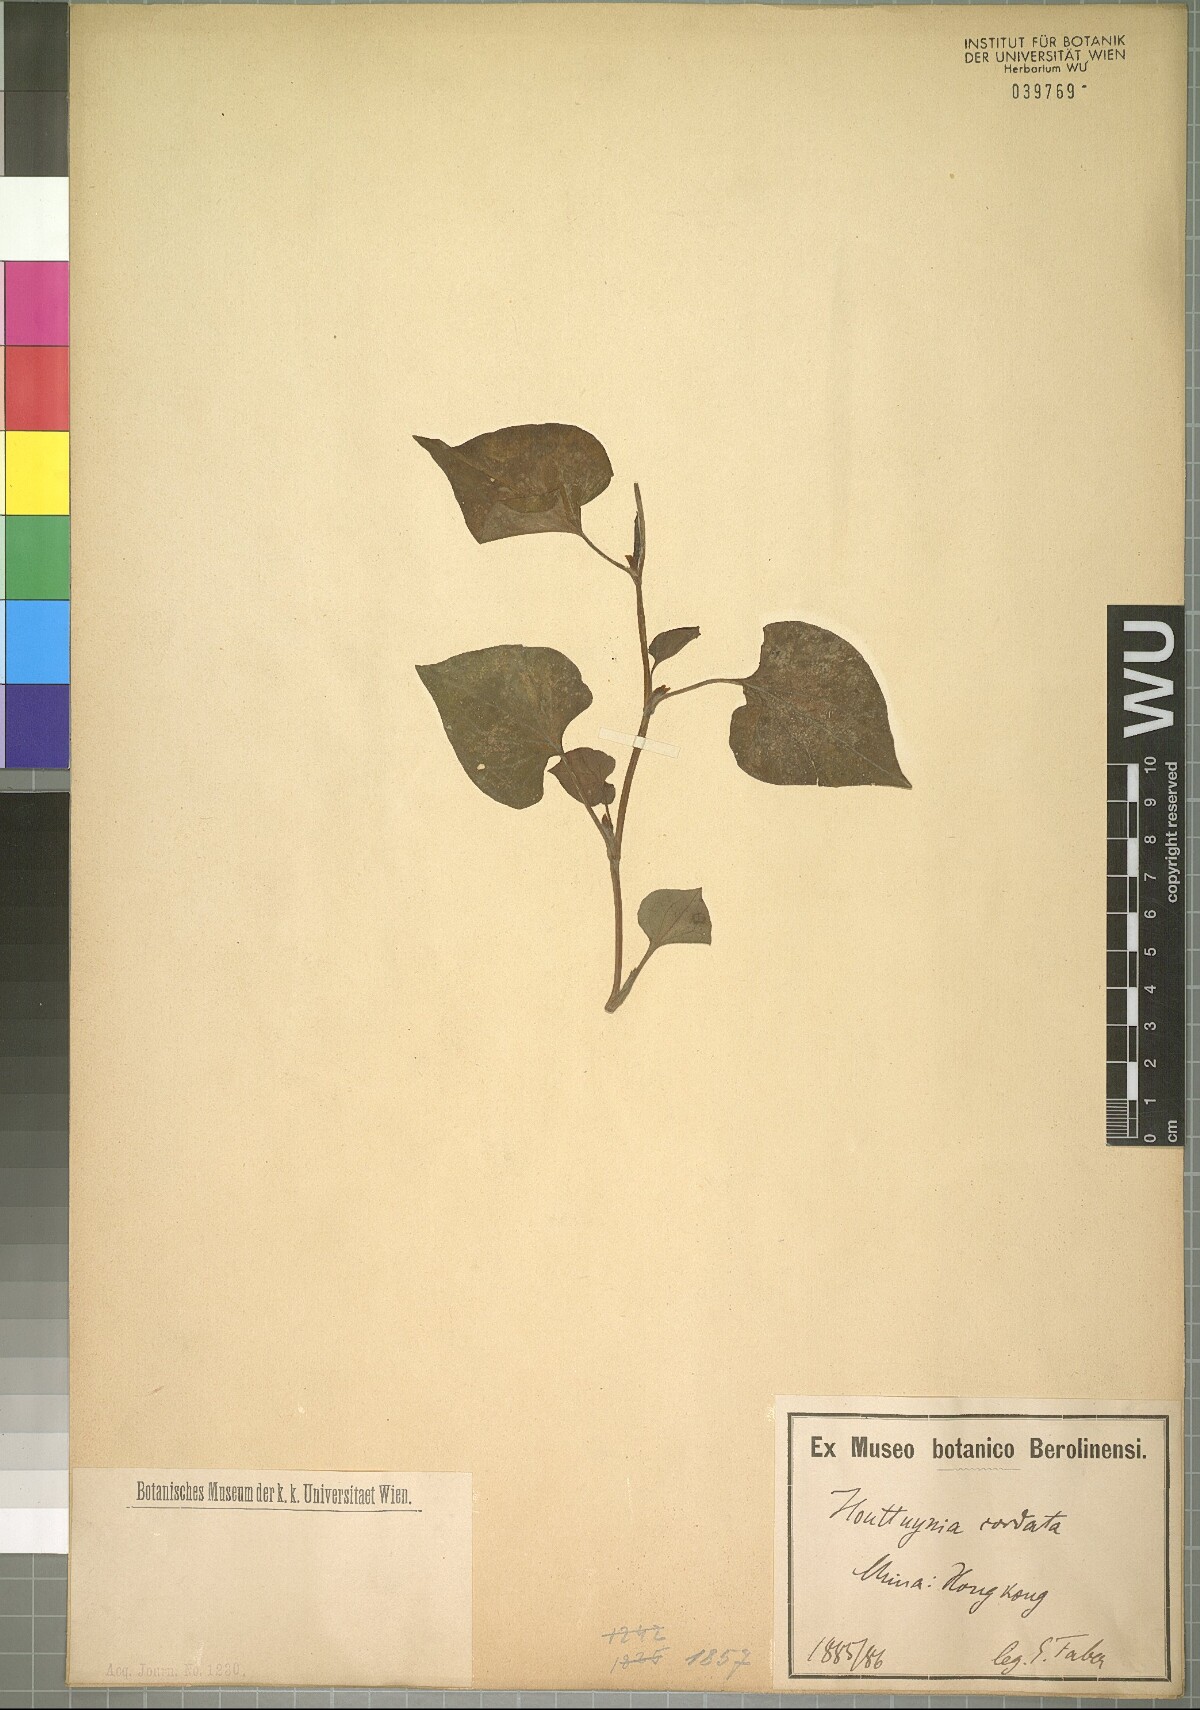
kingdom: Plantae
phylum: Tracheophyta
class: Magnoliopsida
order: Piperales
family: Saururaceae
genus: Houttuynia
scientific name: Houttuynia cordata
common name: Chameleon
